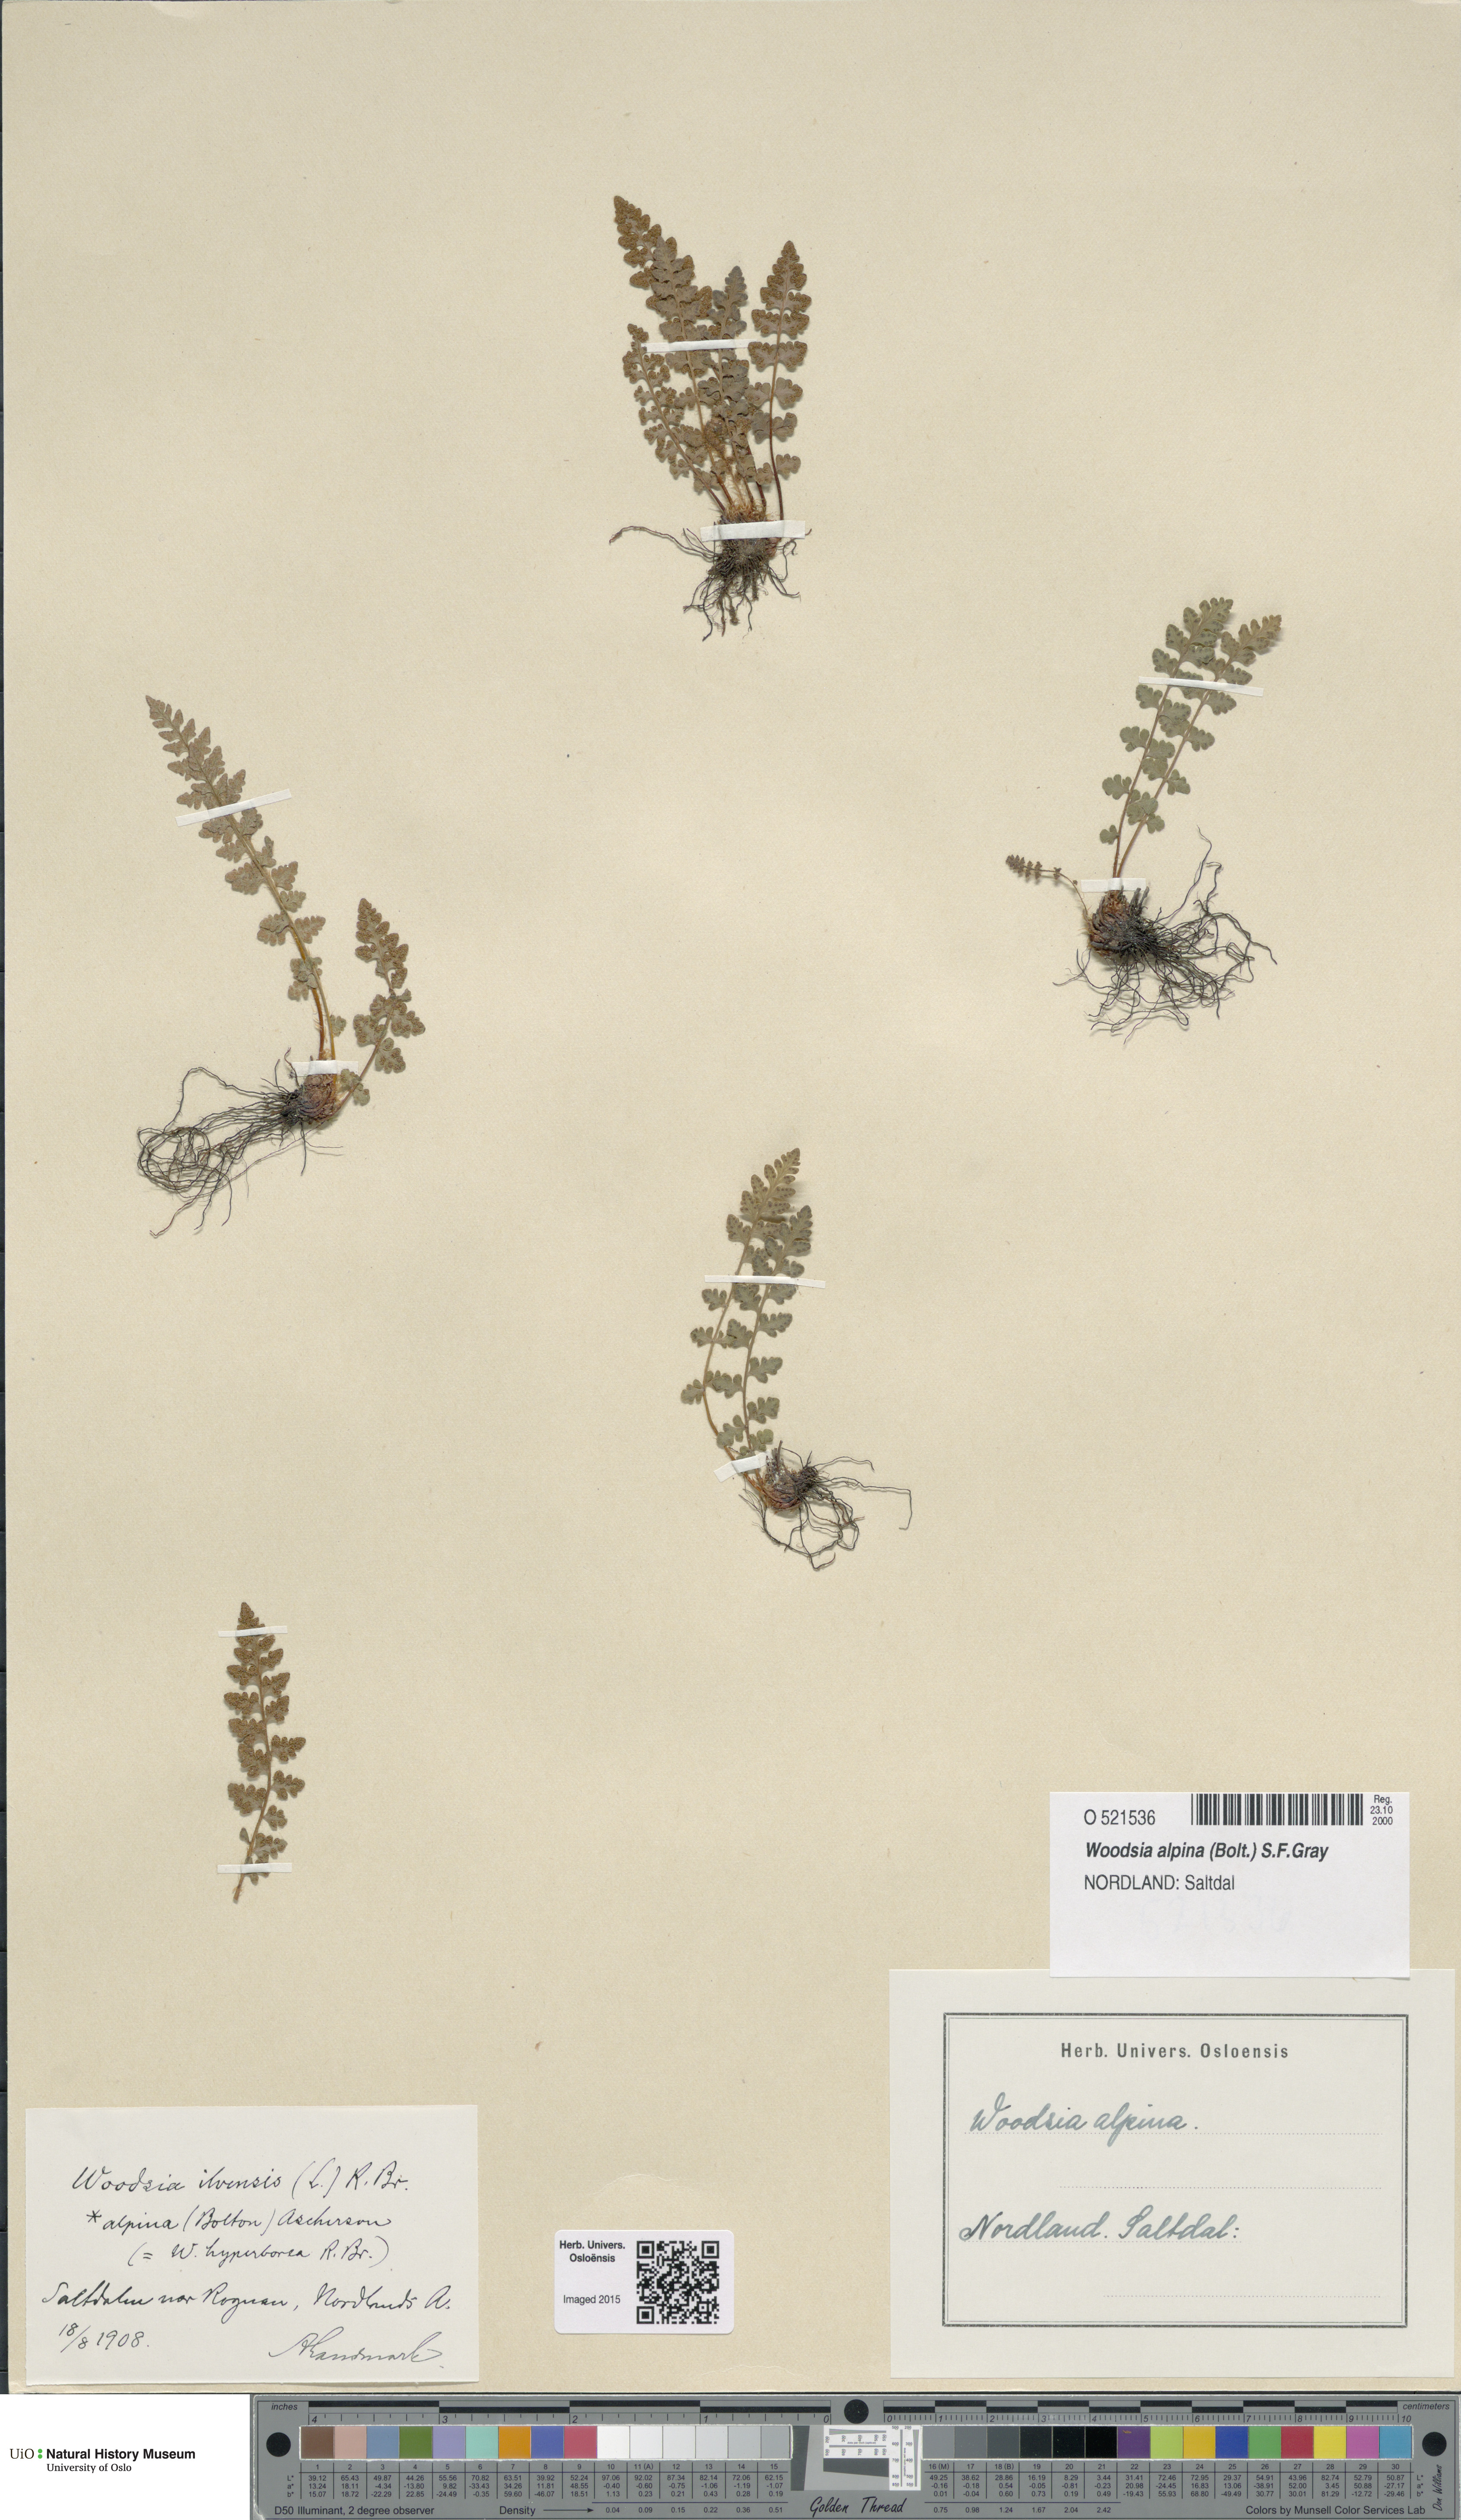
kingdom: Plantae
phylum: Tracheophyta
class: Polypodiopsida
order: Polypodiales
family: Woodsiaceae
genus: Woodsia
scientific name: Woodsia alpina
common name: Alpine woodsia
